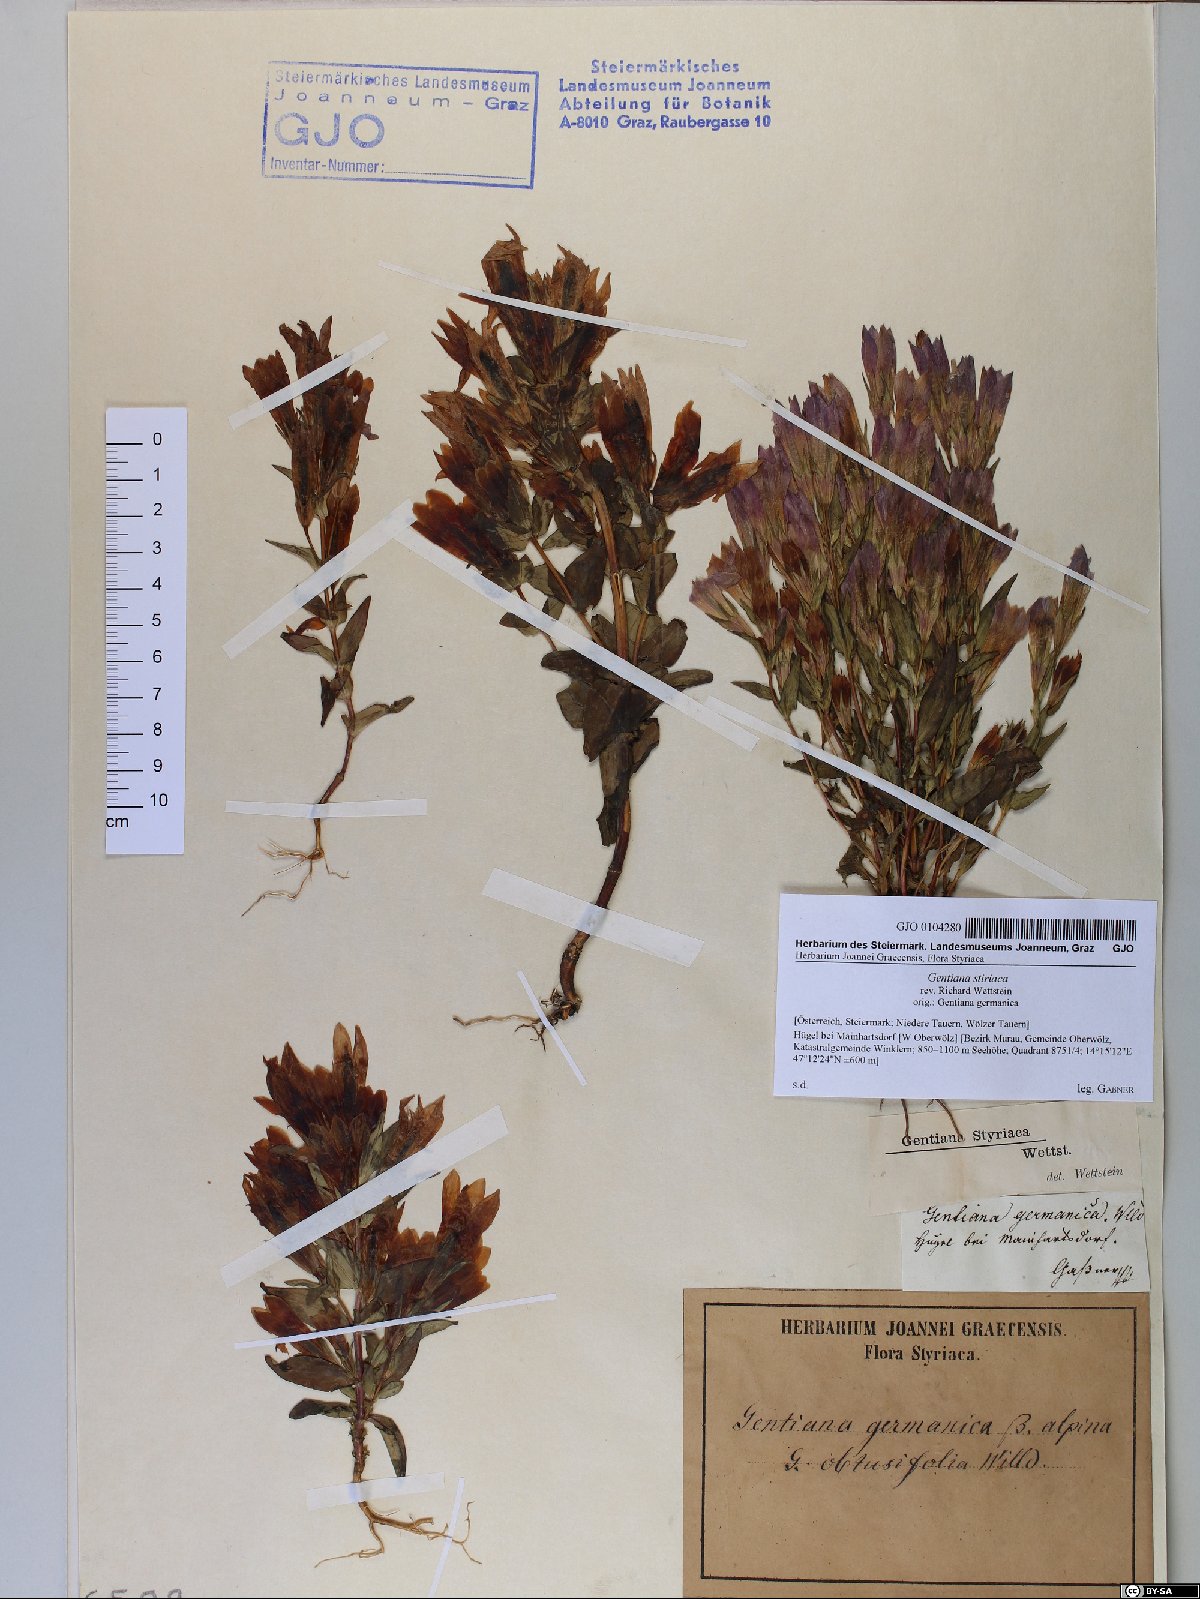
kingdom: Plantae
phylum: Tracheophyta
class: Magnoliopsida
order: Gentianales
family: Gentianaceae
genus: Gentianella
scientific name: Gentianella rhaetica
